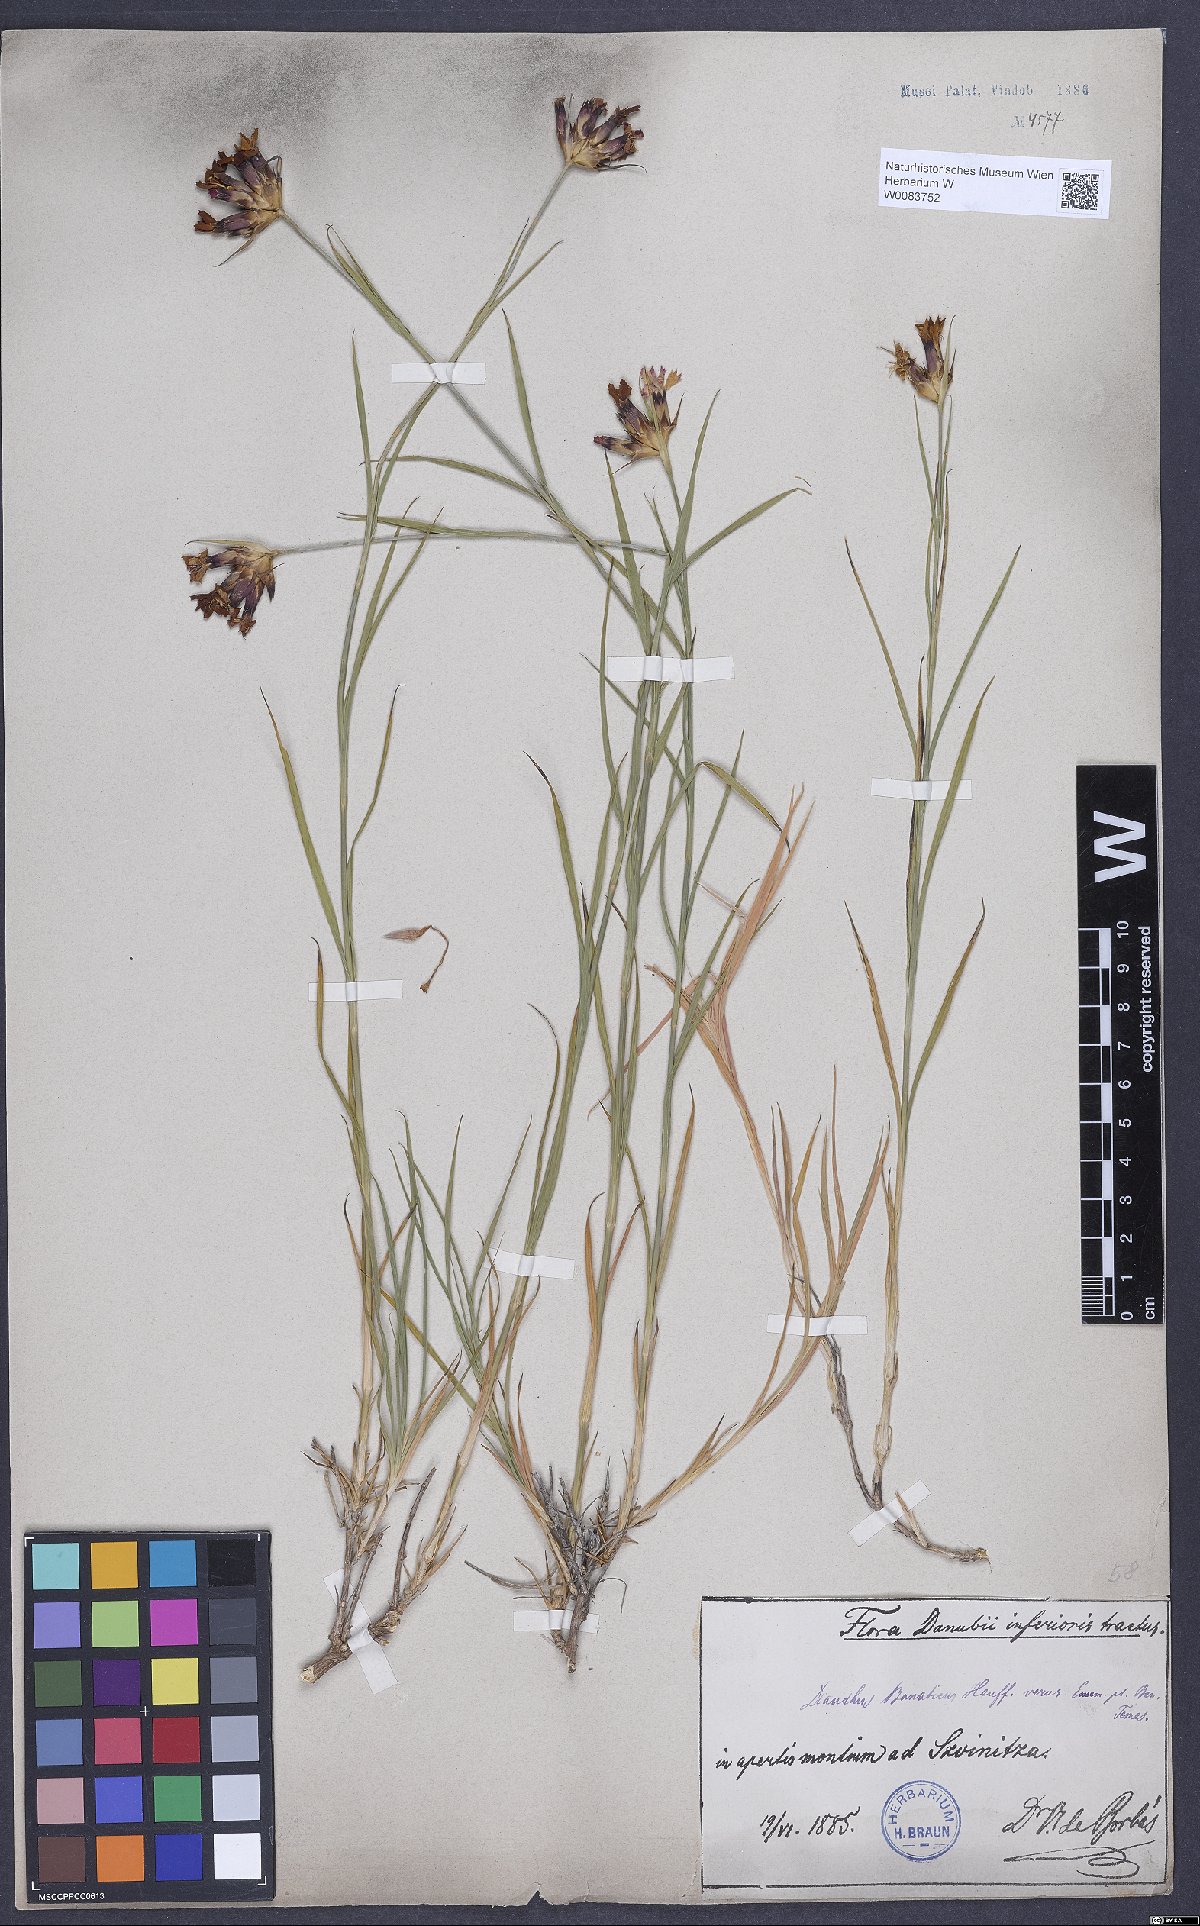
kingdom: Plantae
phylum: Tracheophyta
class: Magnoliopsida
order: Caryophyllales
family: Caryophyllaceae
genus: Dianthus
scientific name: Dianthus giganteus
